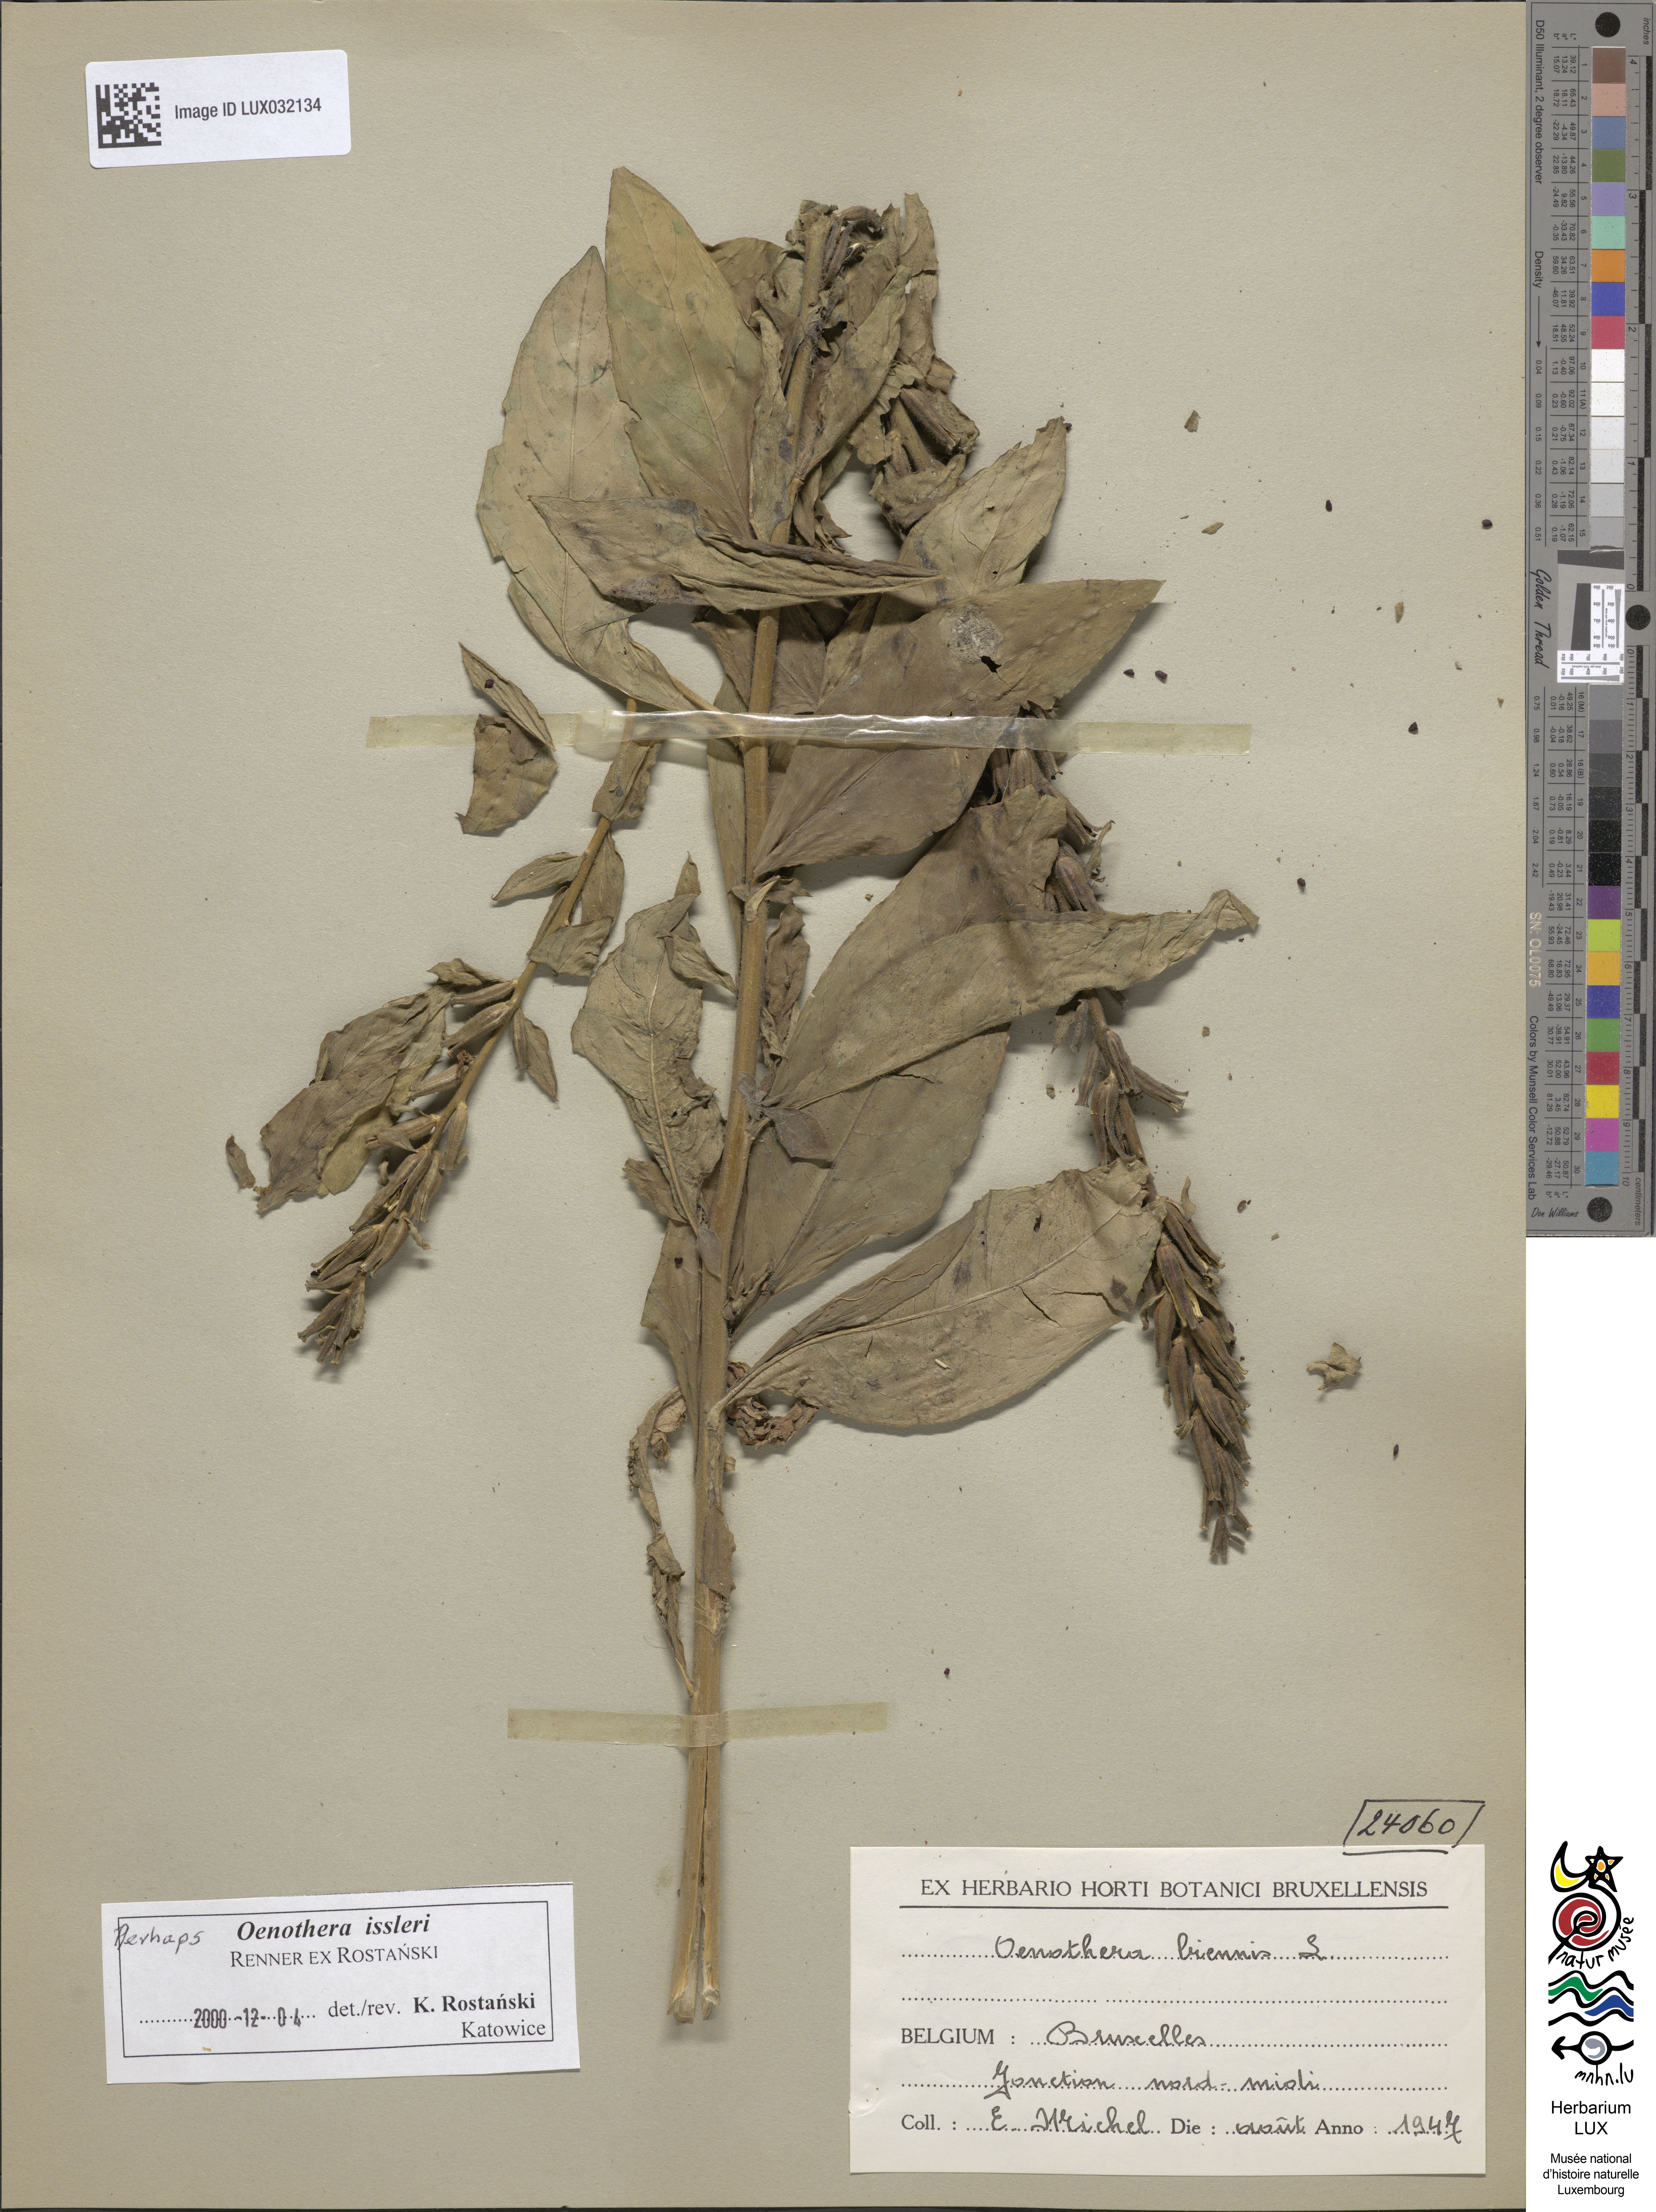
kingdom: Plantae
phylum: Tracheophyta
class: Magnoliopsida
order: Myrtales
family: Onagraceae
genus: Oenothera
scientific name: Oenothera biennis
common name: Common evening-primrose
